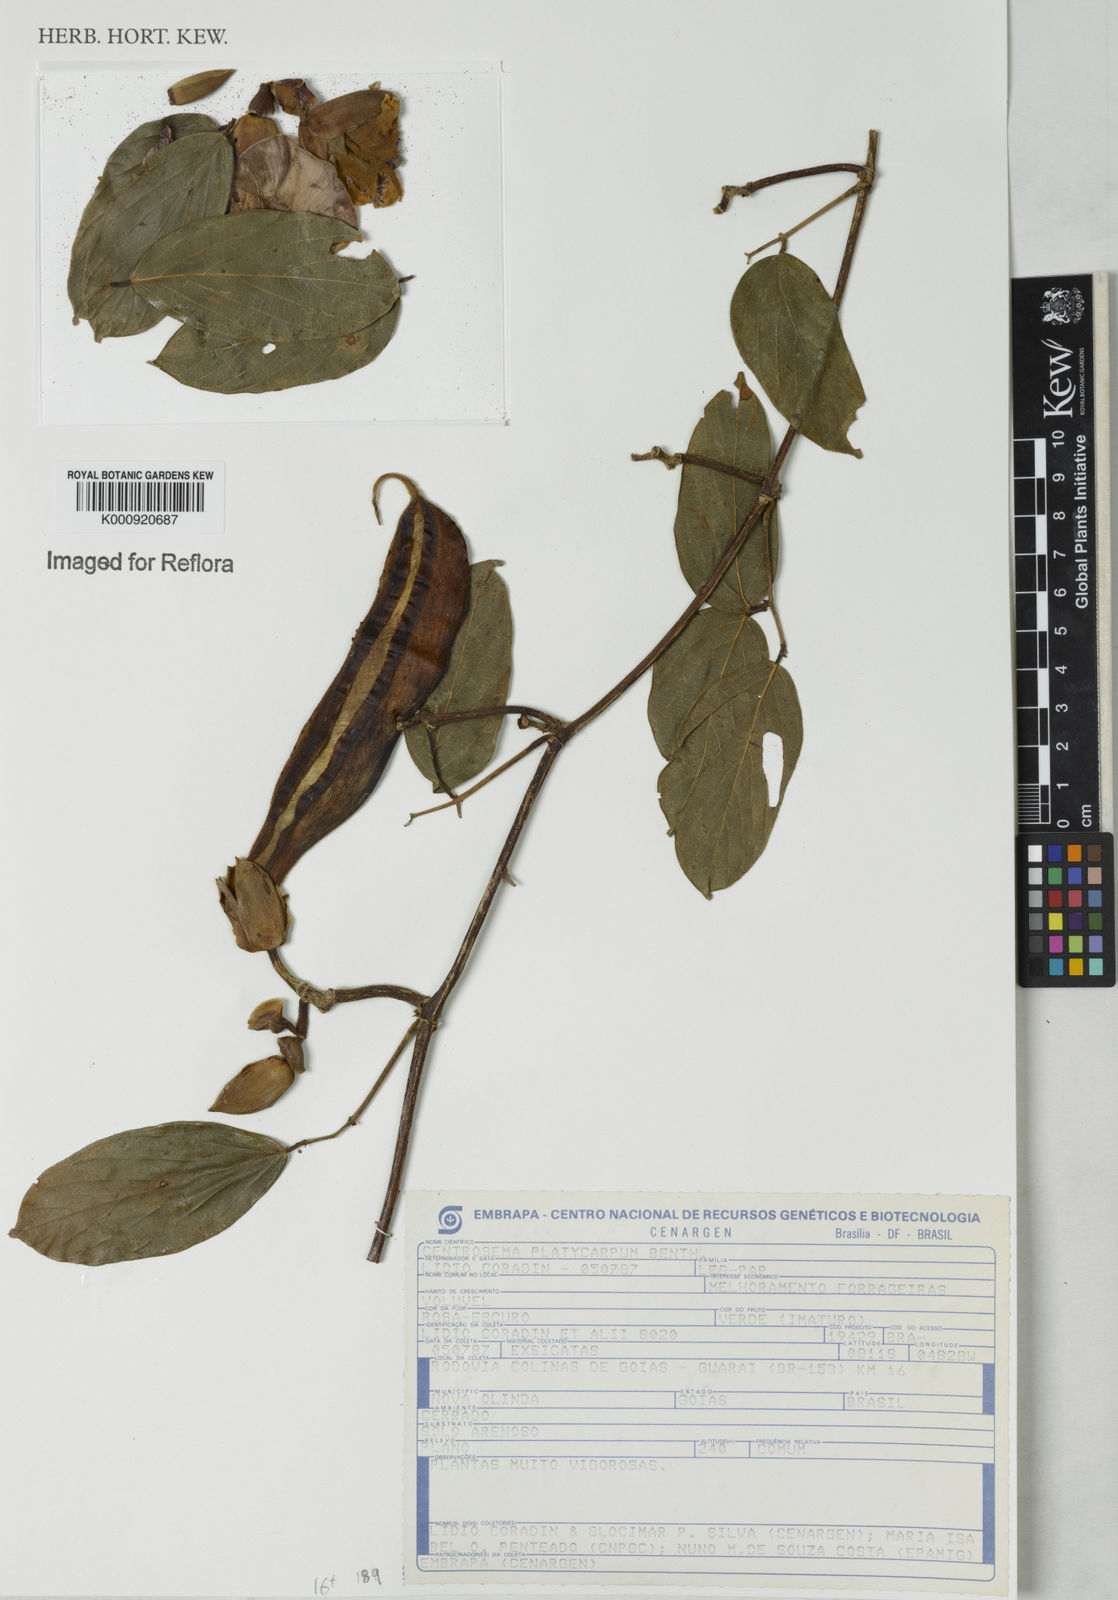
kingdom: Plantae
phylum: Tracheophyta
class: Magnoliopsida
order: Fabales
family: Fabaceae
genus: Centrosema
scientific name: Centrosema platycarpum
